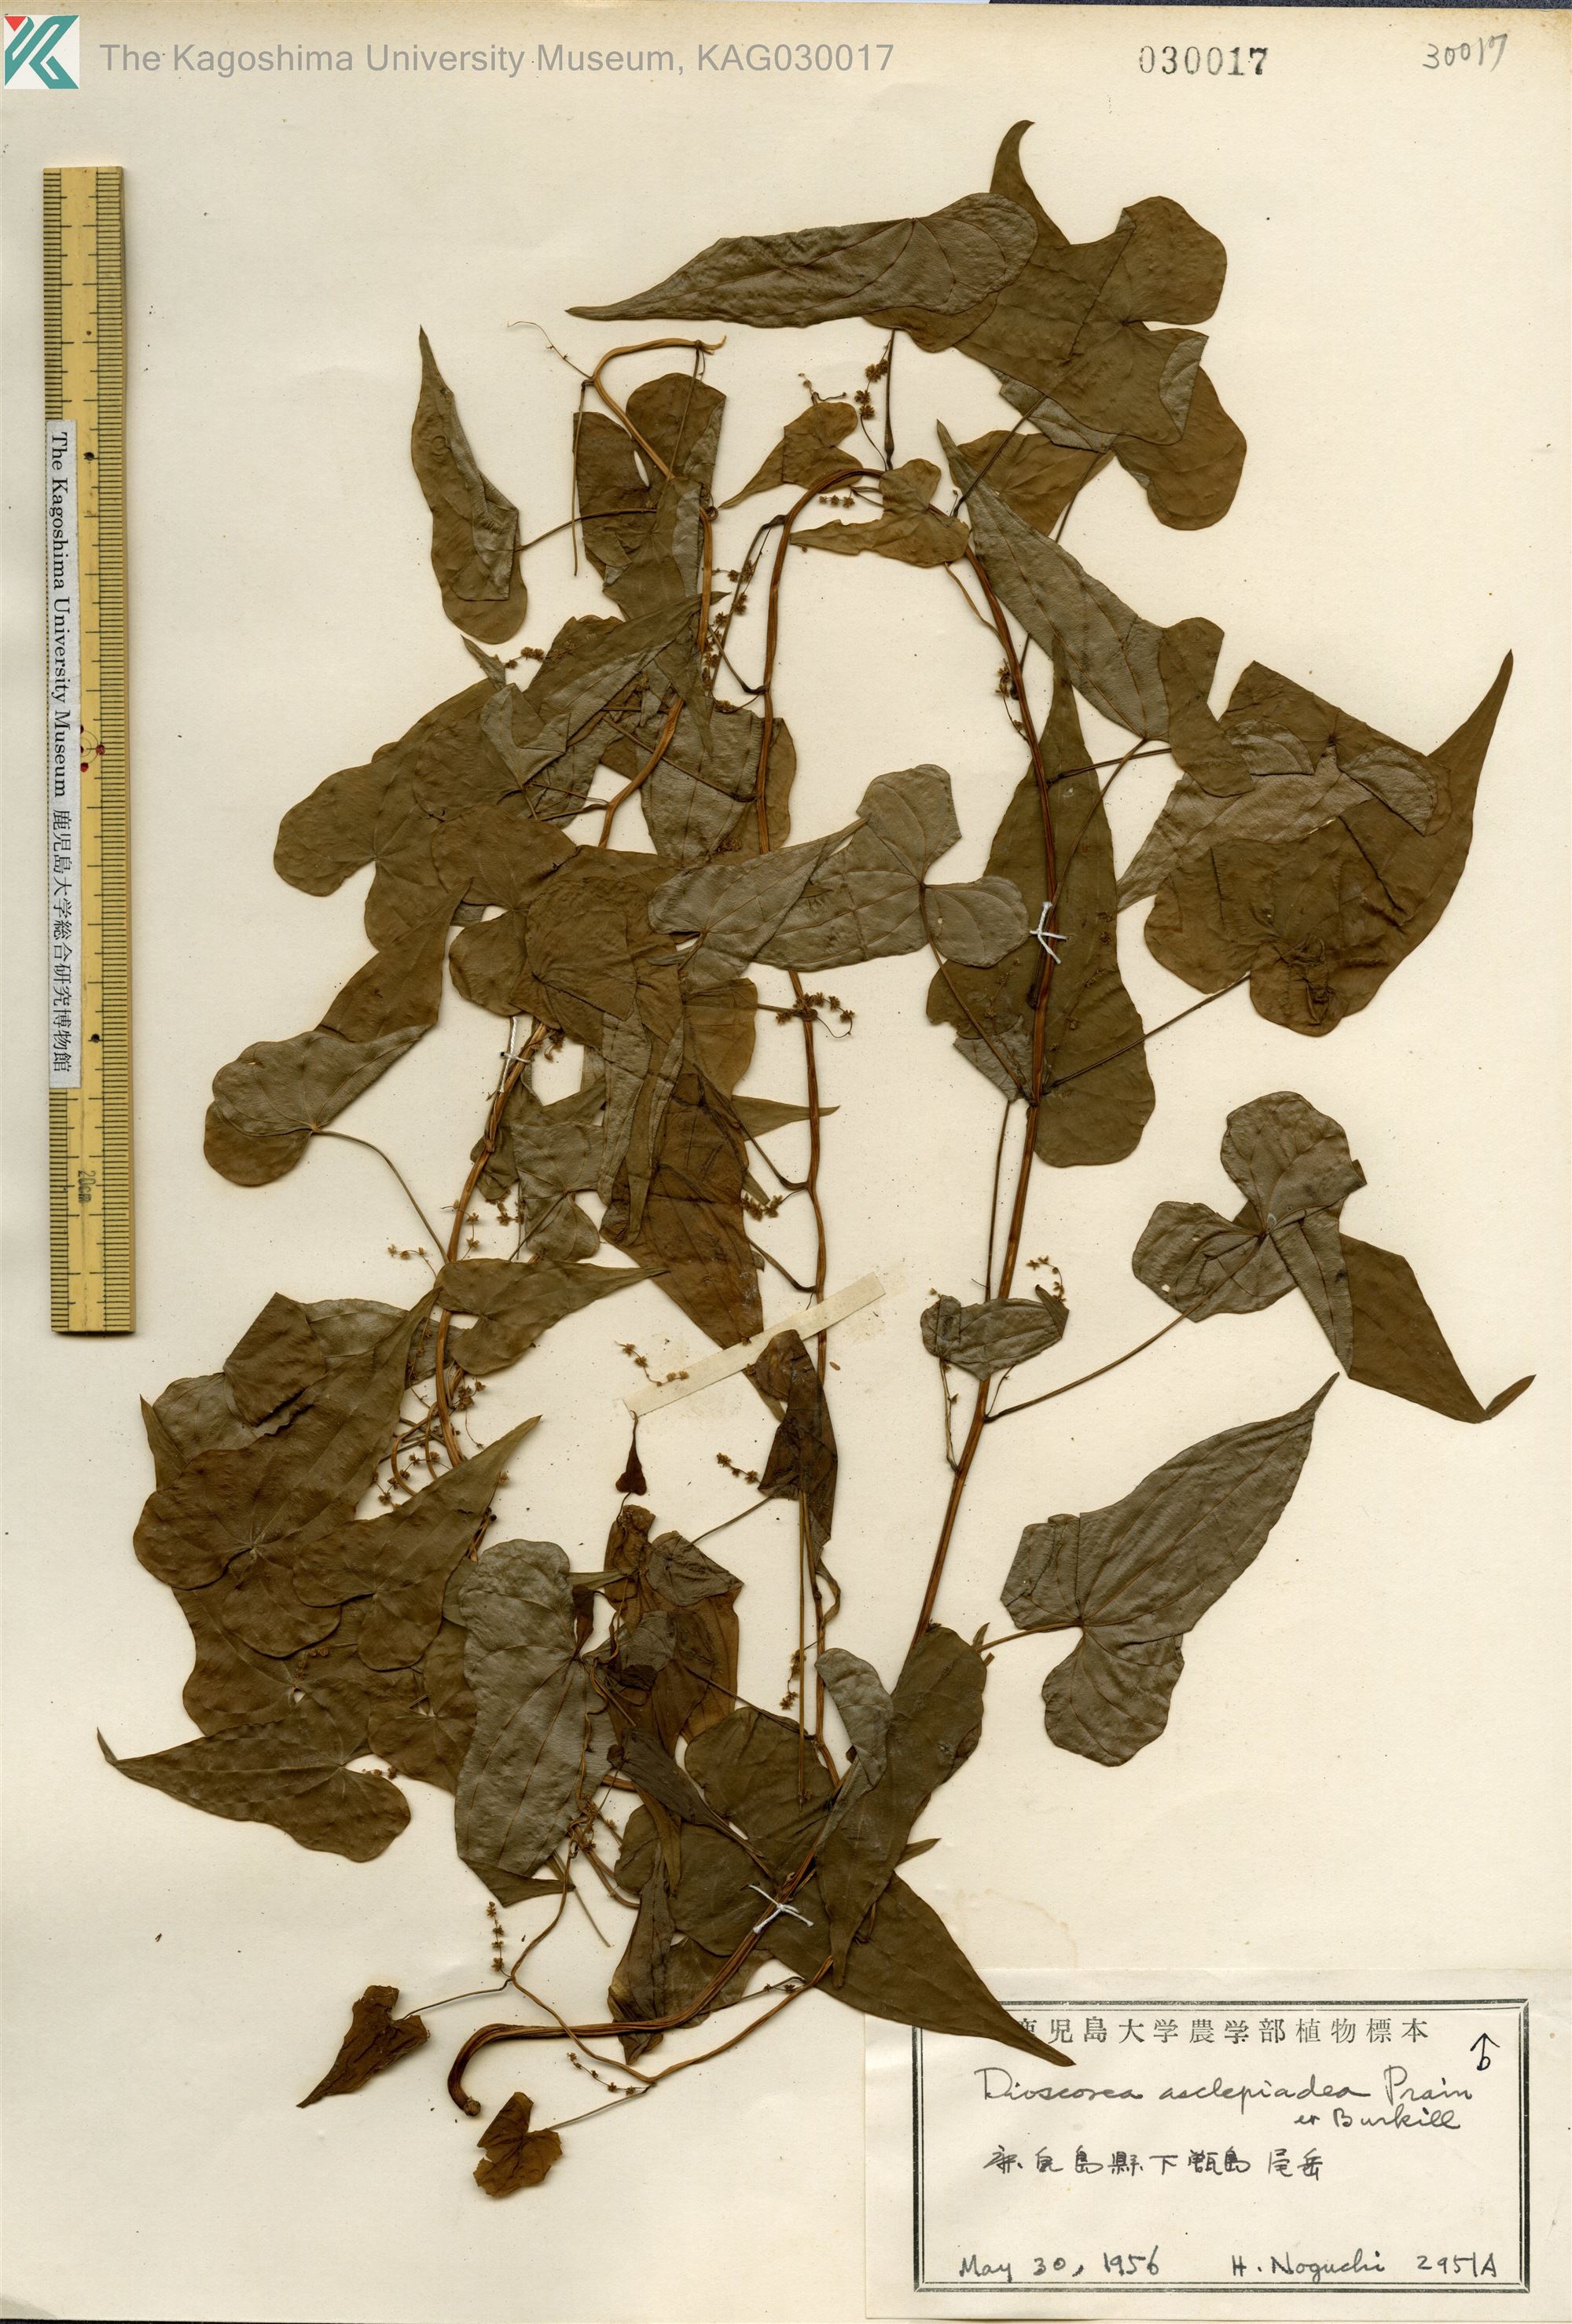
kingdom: Plantae
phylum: Tracheophyta
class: Liliopsida
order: Dioscoreales
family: Dioscoreaceae
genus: Dioscorea
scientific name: Dioscorea asclepiadea
